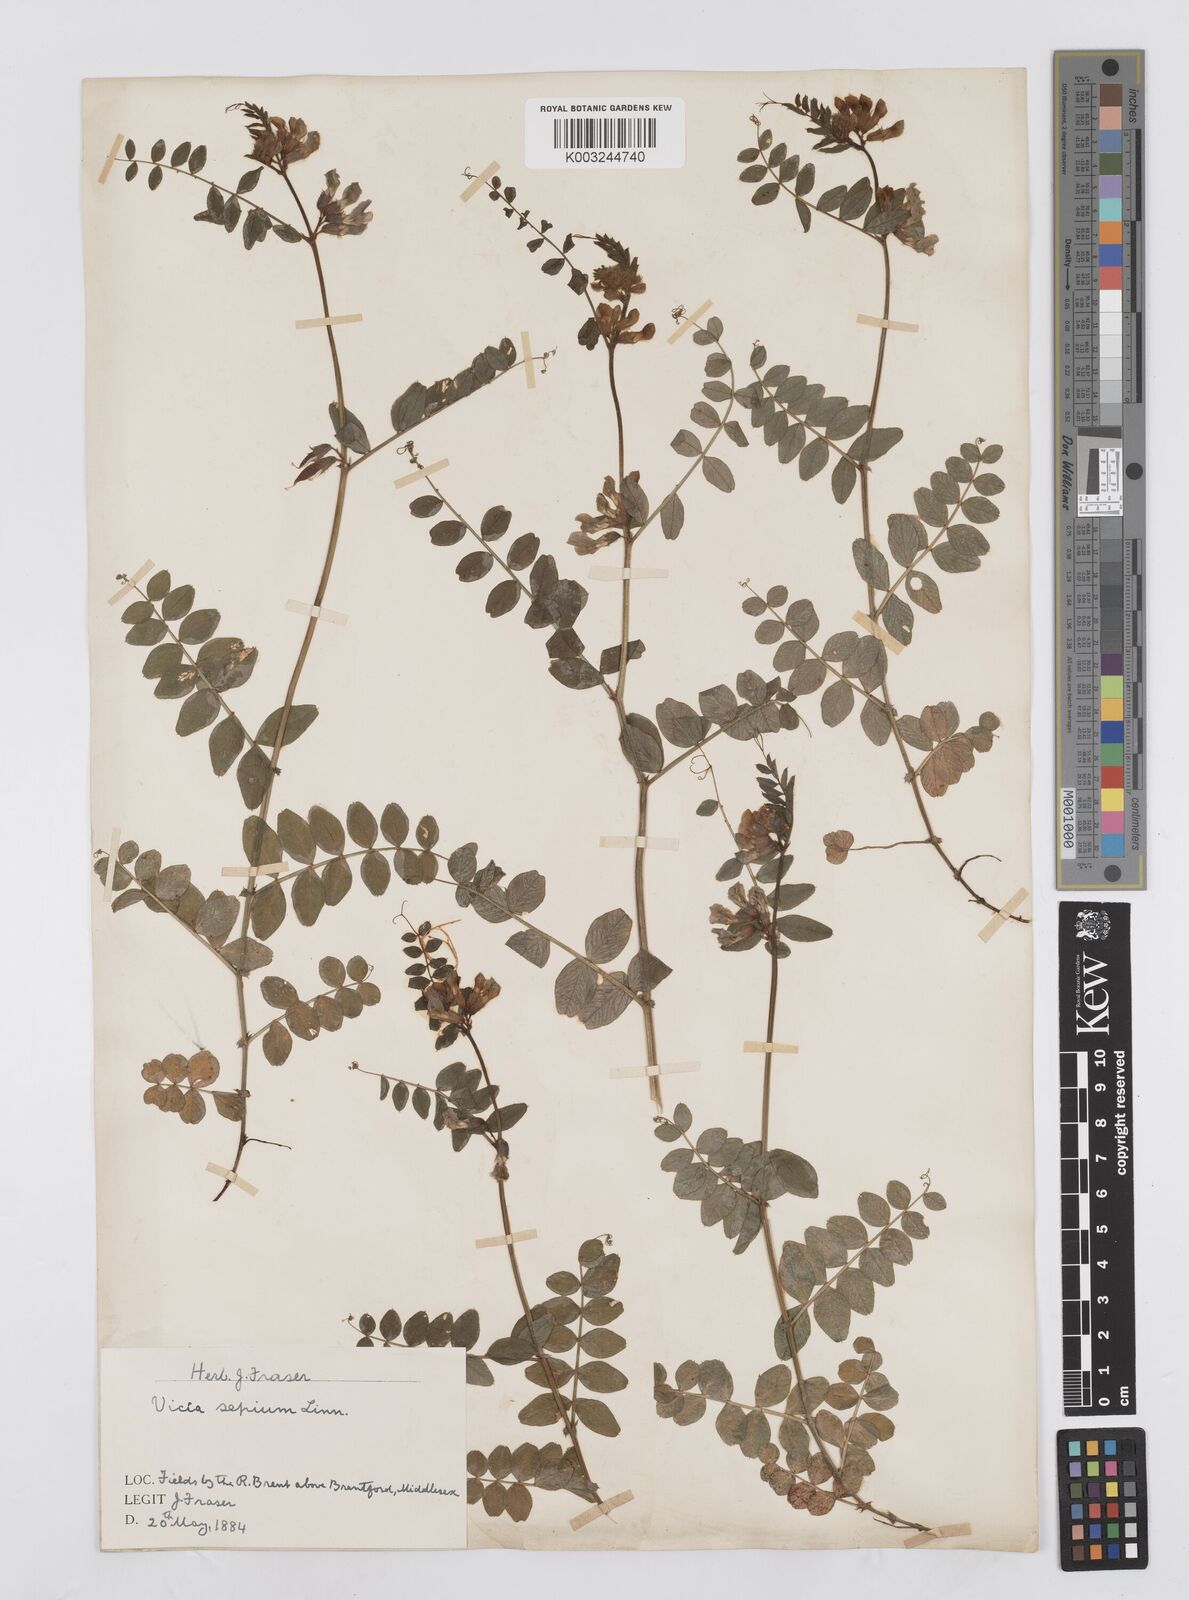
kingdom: Plantae
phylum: Tracheophyta
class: Magnoliopsida
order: Fabales
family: Fabaceae
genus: Vicia
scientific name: Vicia sepium
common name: Bush vetch
